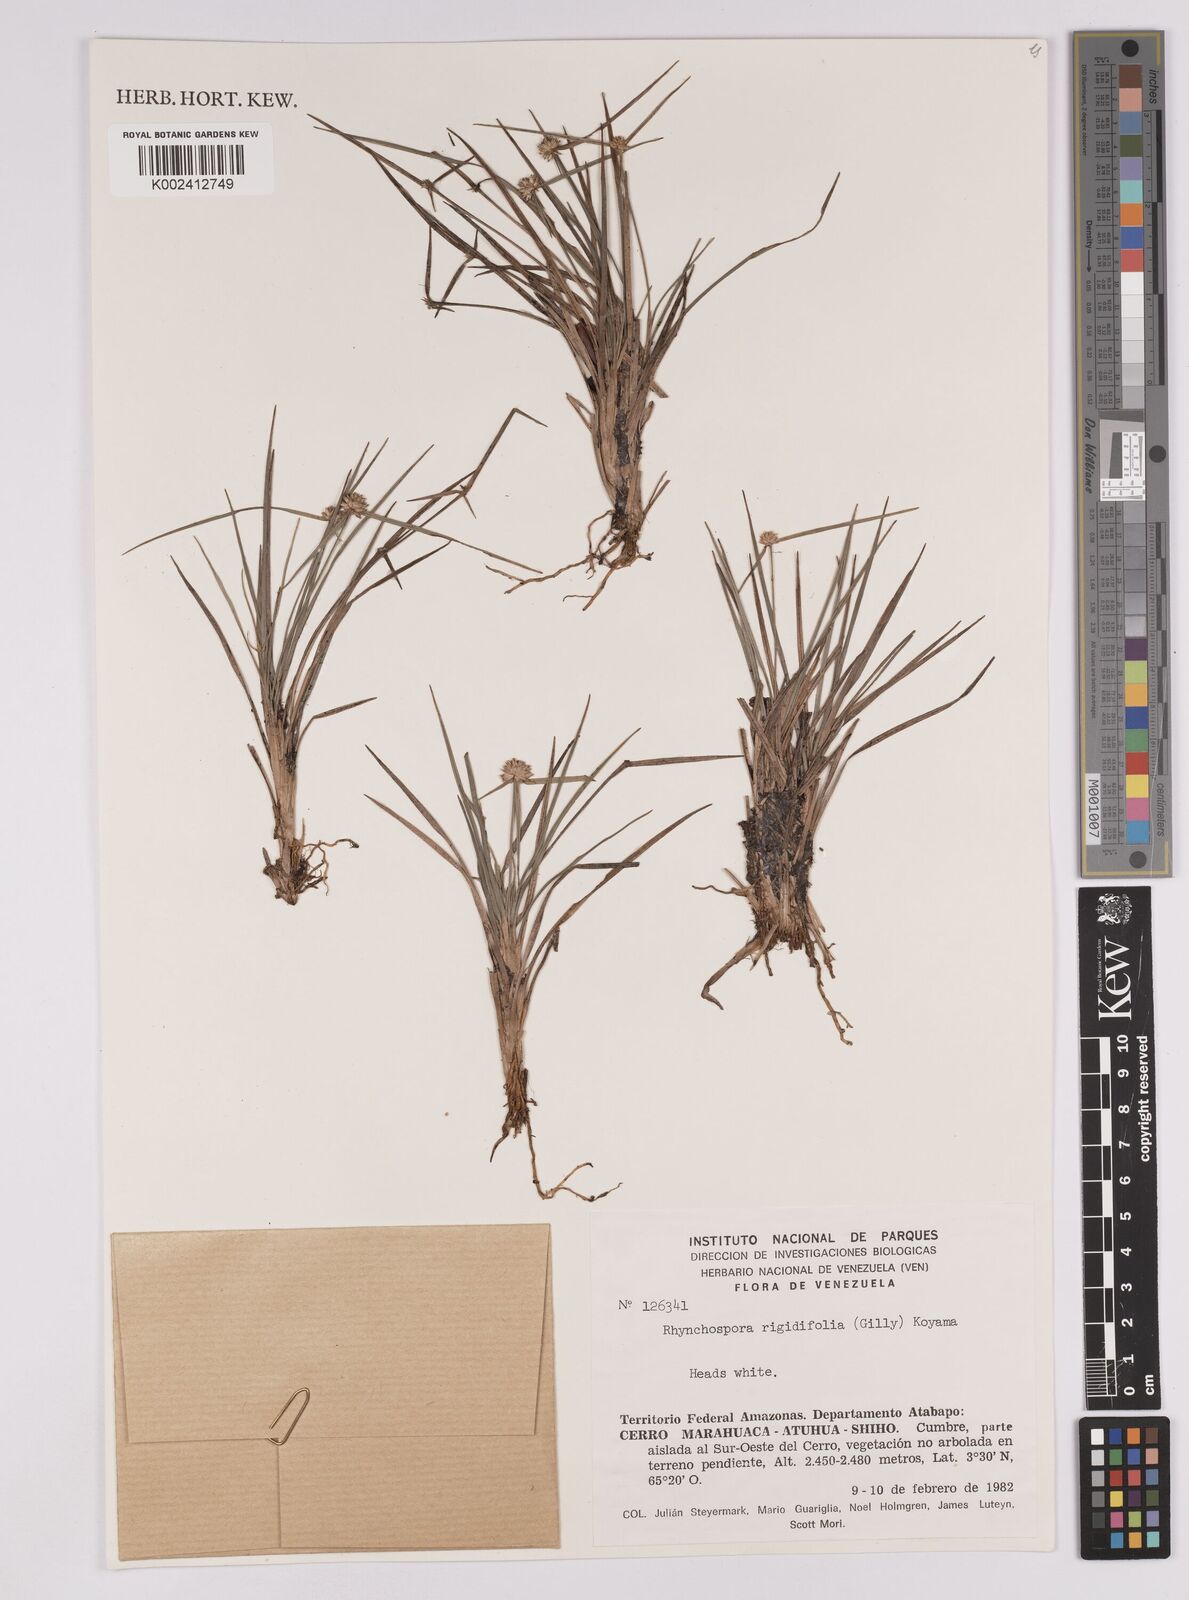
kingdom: Plantae
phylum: Tracheophyta
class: Liliopsida
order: Poales
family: Cyperaceae
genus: Rhynchospora
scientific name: Rhynchospora rigidifolia
